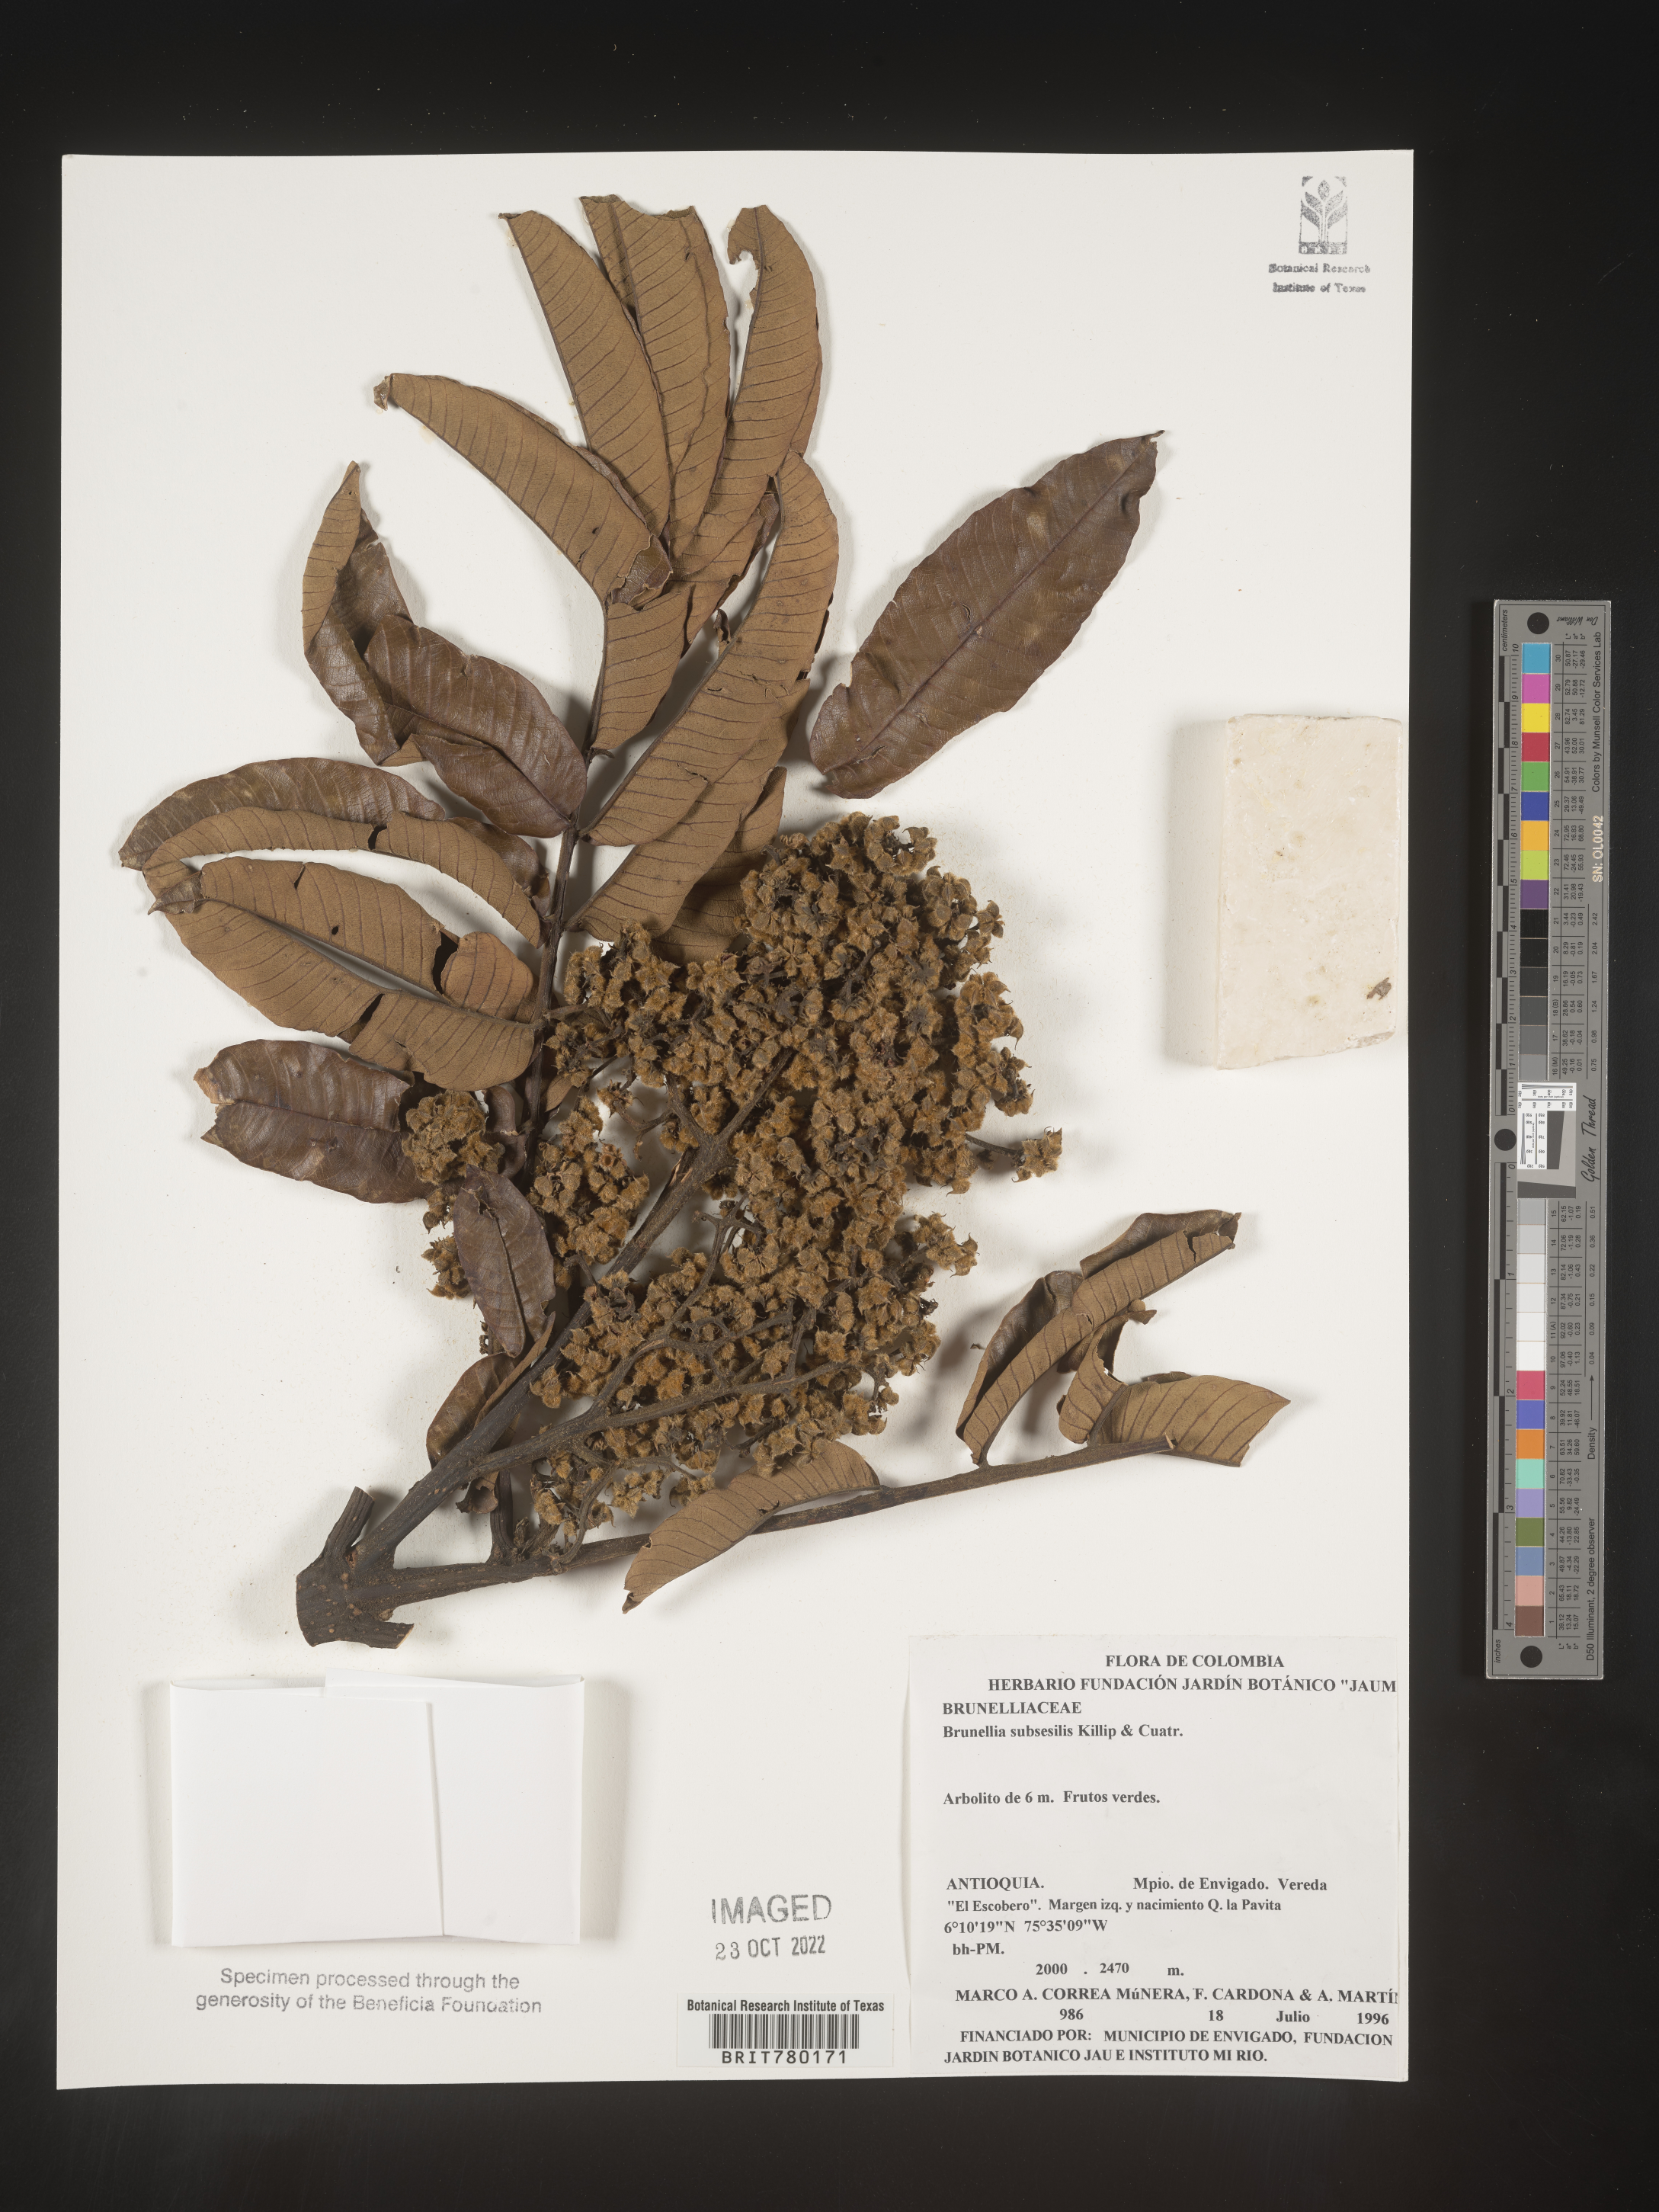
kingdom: Plantae
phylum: Tracheophyta
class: Magnoliopsida
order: Oxalidales
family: Brunelliaceae
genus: Brunellia
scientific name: Brunellia
